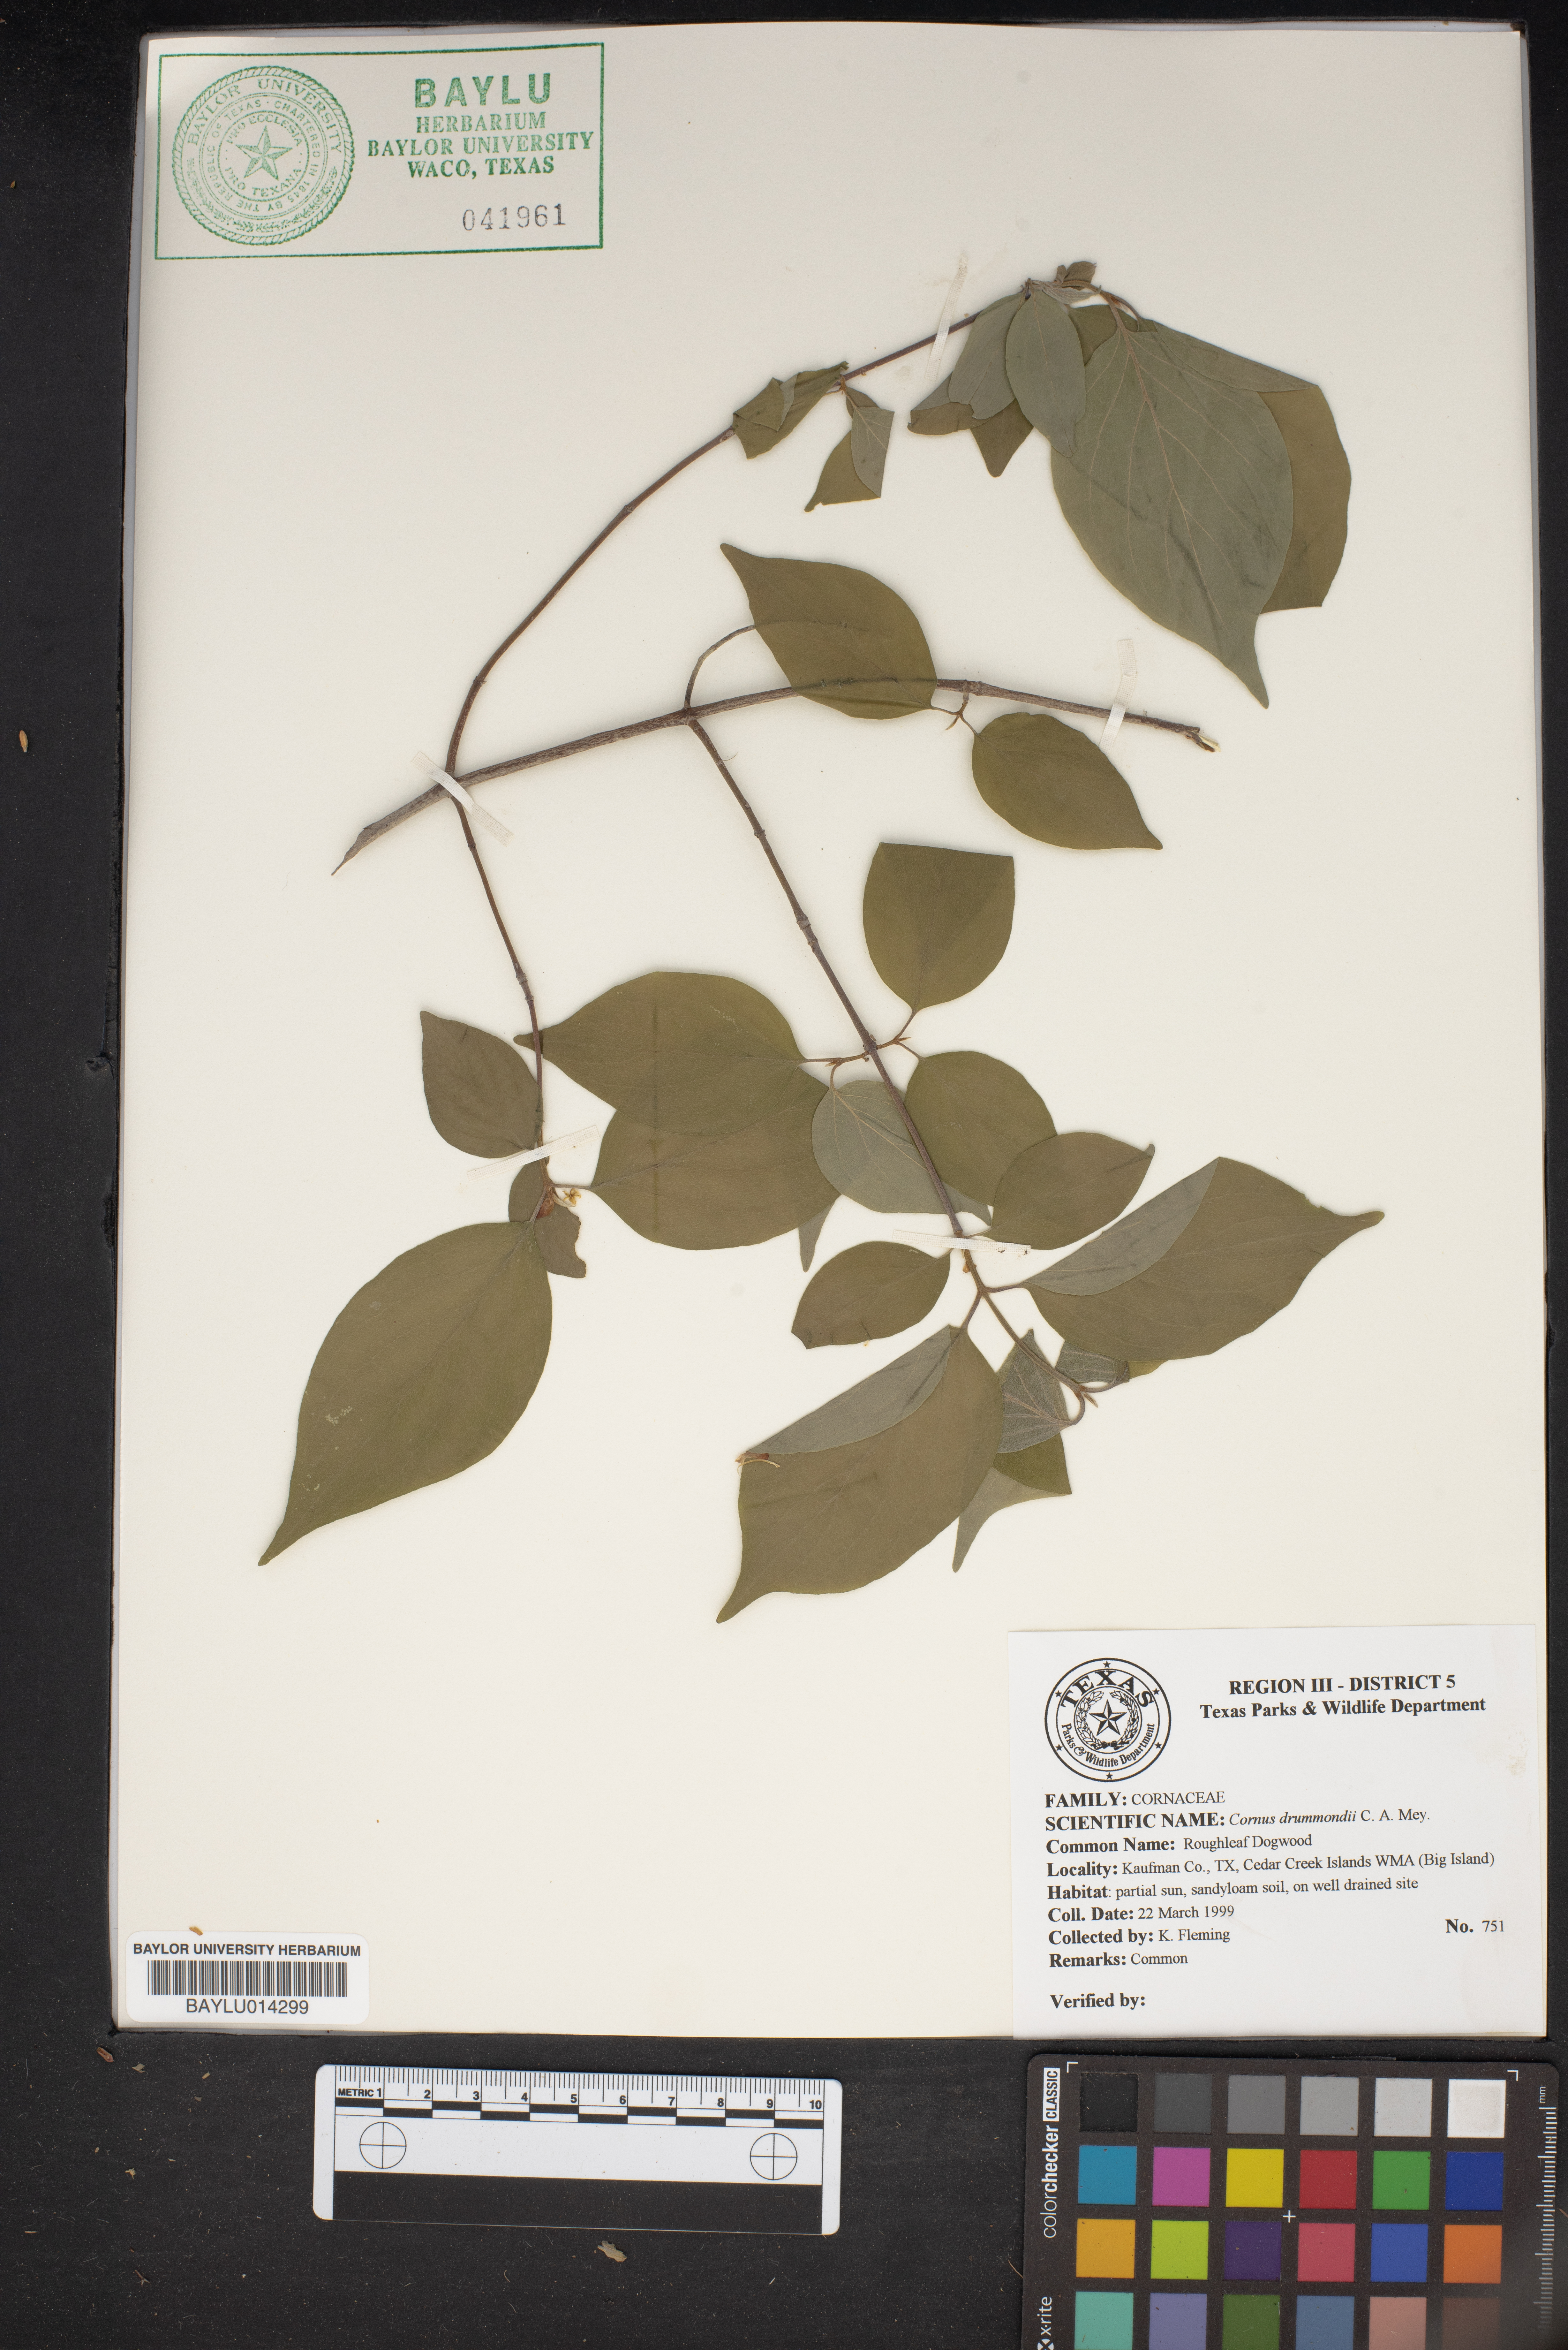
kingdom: Plantae
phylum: Tracheophyta
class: Magnoliopsida
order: Cornales
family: Cornaceae
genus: Cornus
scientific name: Cornus drummondii
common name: Rough-leaf dogwood
